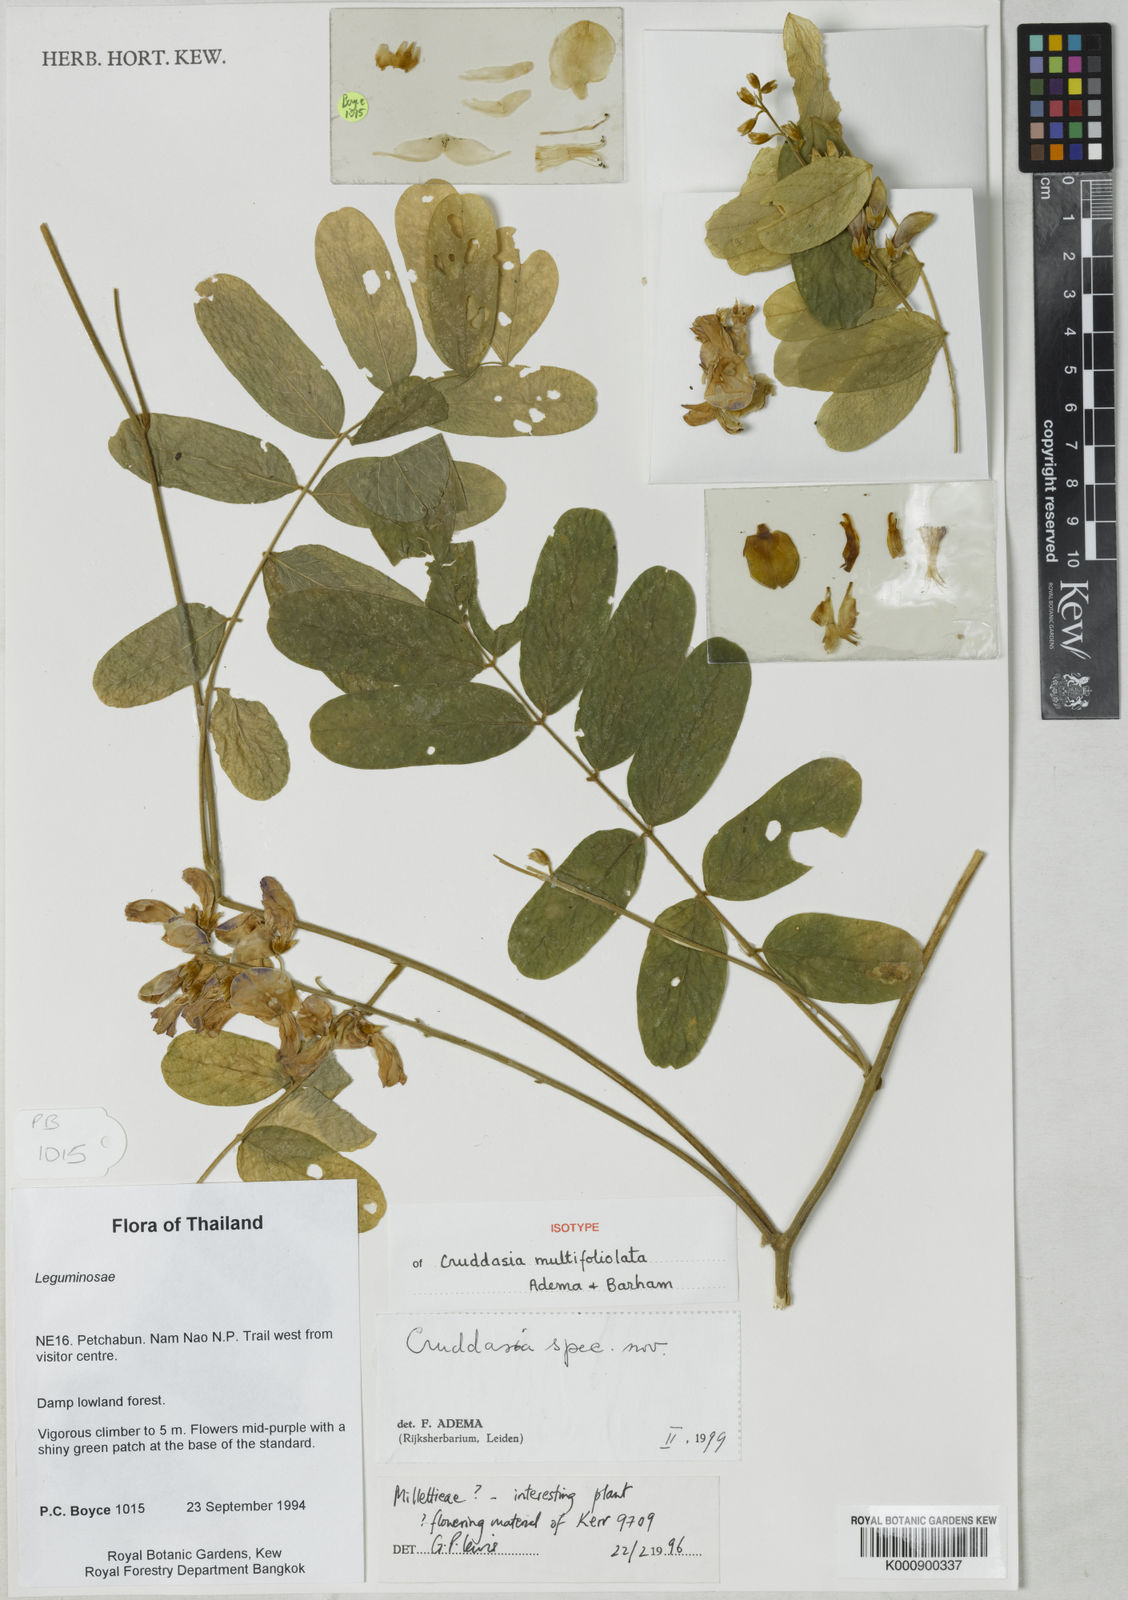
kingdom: Plantae
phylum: Tracheophyta
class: Magnoliopsida
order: Fabales
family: Fabaceae
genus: Cruddasia
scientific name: Cruddasia multifoliolata
